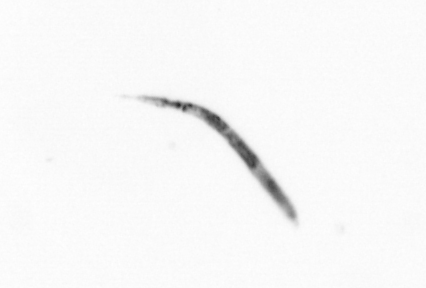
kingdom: Chromista
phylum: Ochrophyta
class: Bacillariophyceae
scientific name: Bacillariophyceae
